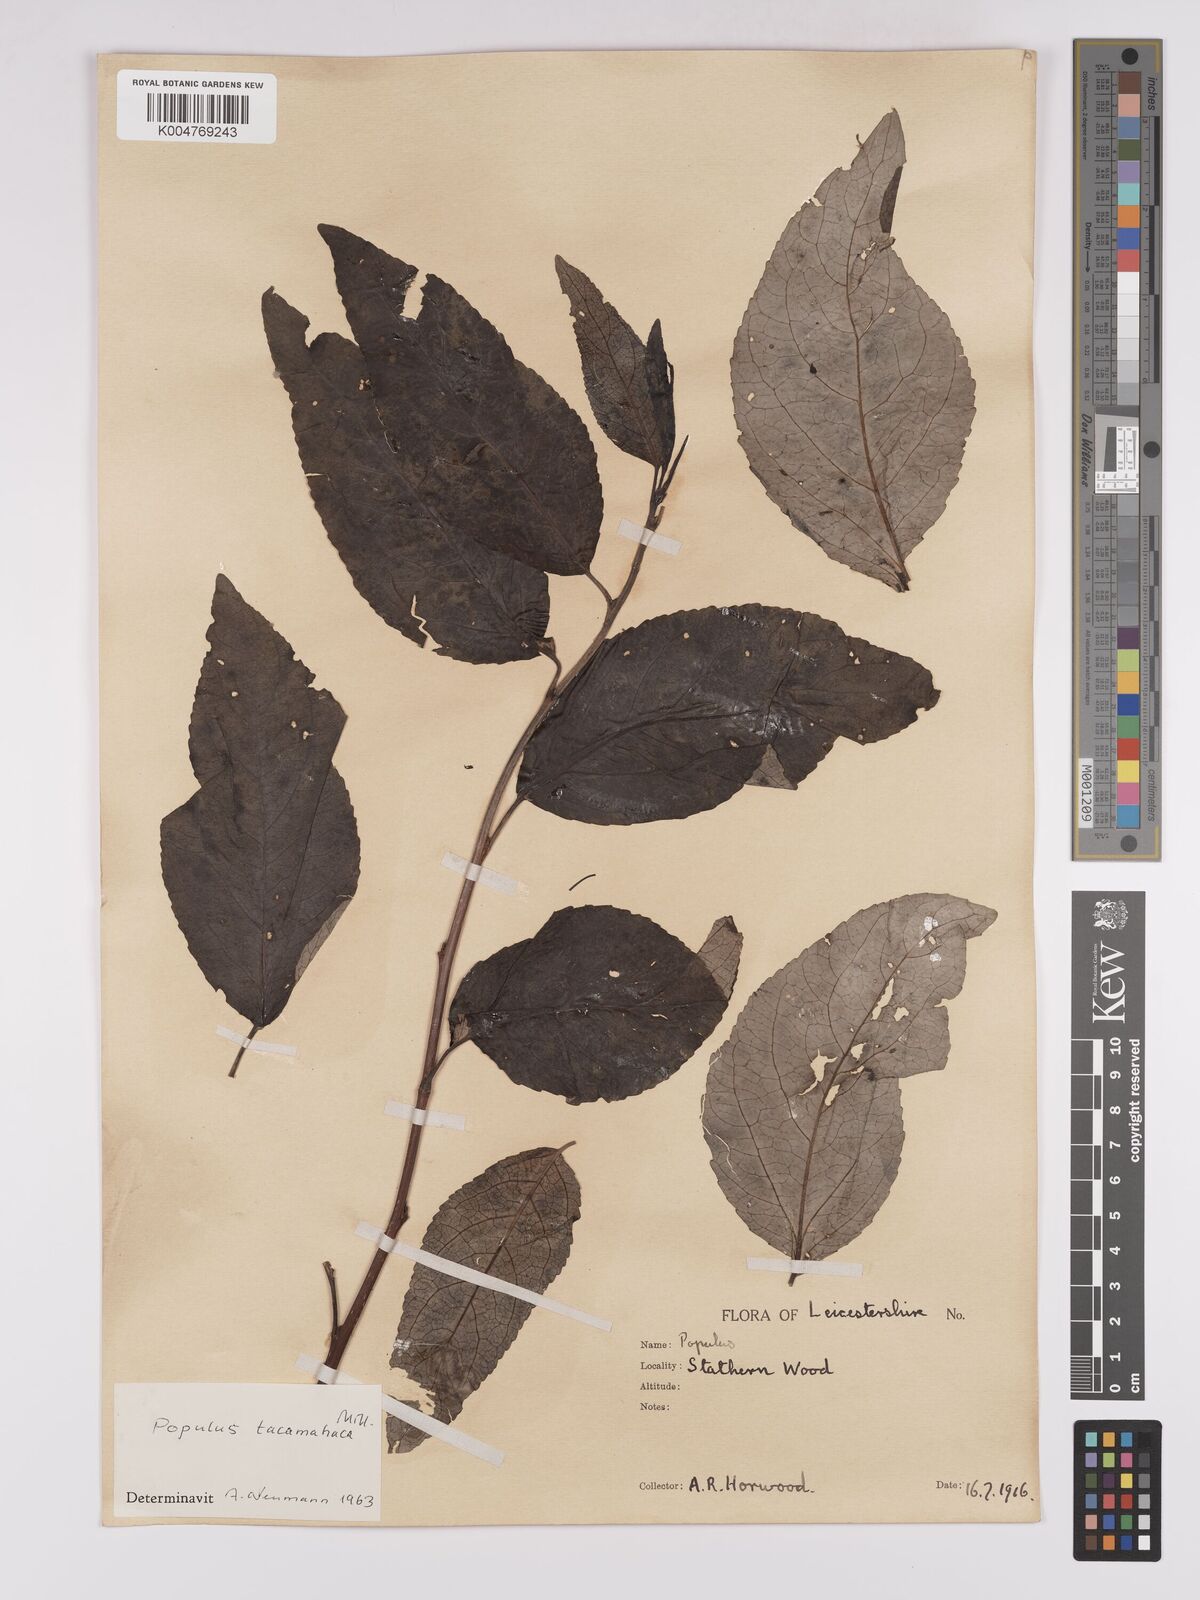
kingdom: Plantae
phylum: Tracheophyta
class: Magnoliopsida
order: Malpighiales
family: Salicaceae
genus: Populus
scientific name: Populus balsamifera
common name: Balsam poplar
